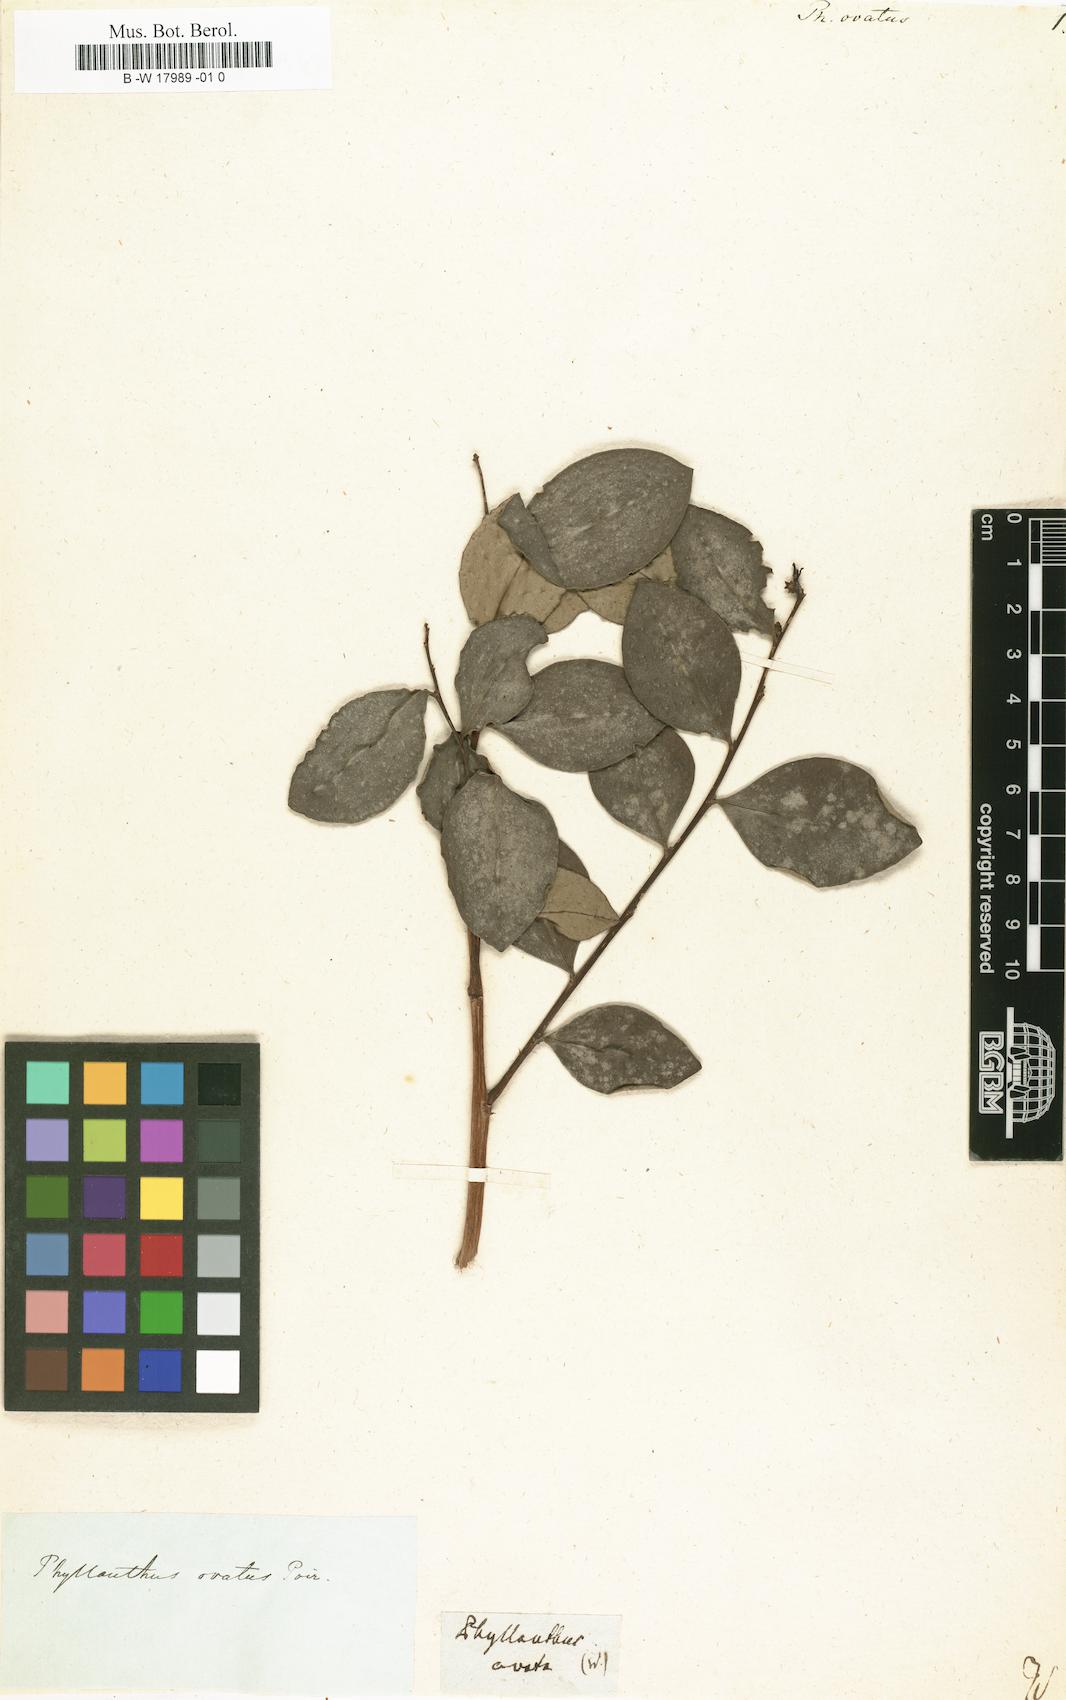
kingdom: Plantae
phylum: Tracheophyta
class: Magnoliopsida
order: Malpighiales
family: Phyllanthaceae
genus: Phyllanthus
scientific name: Phyllanthus ovatus
